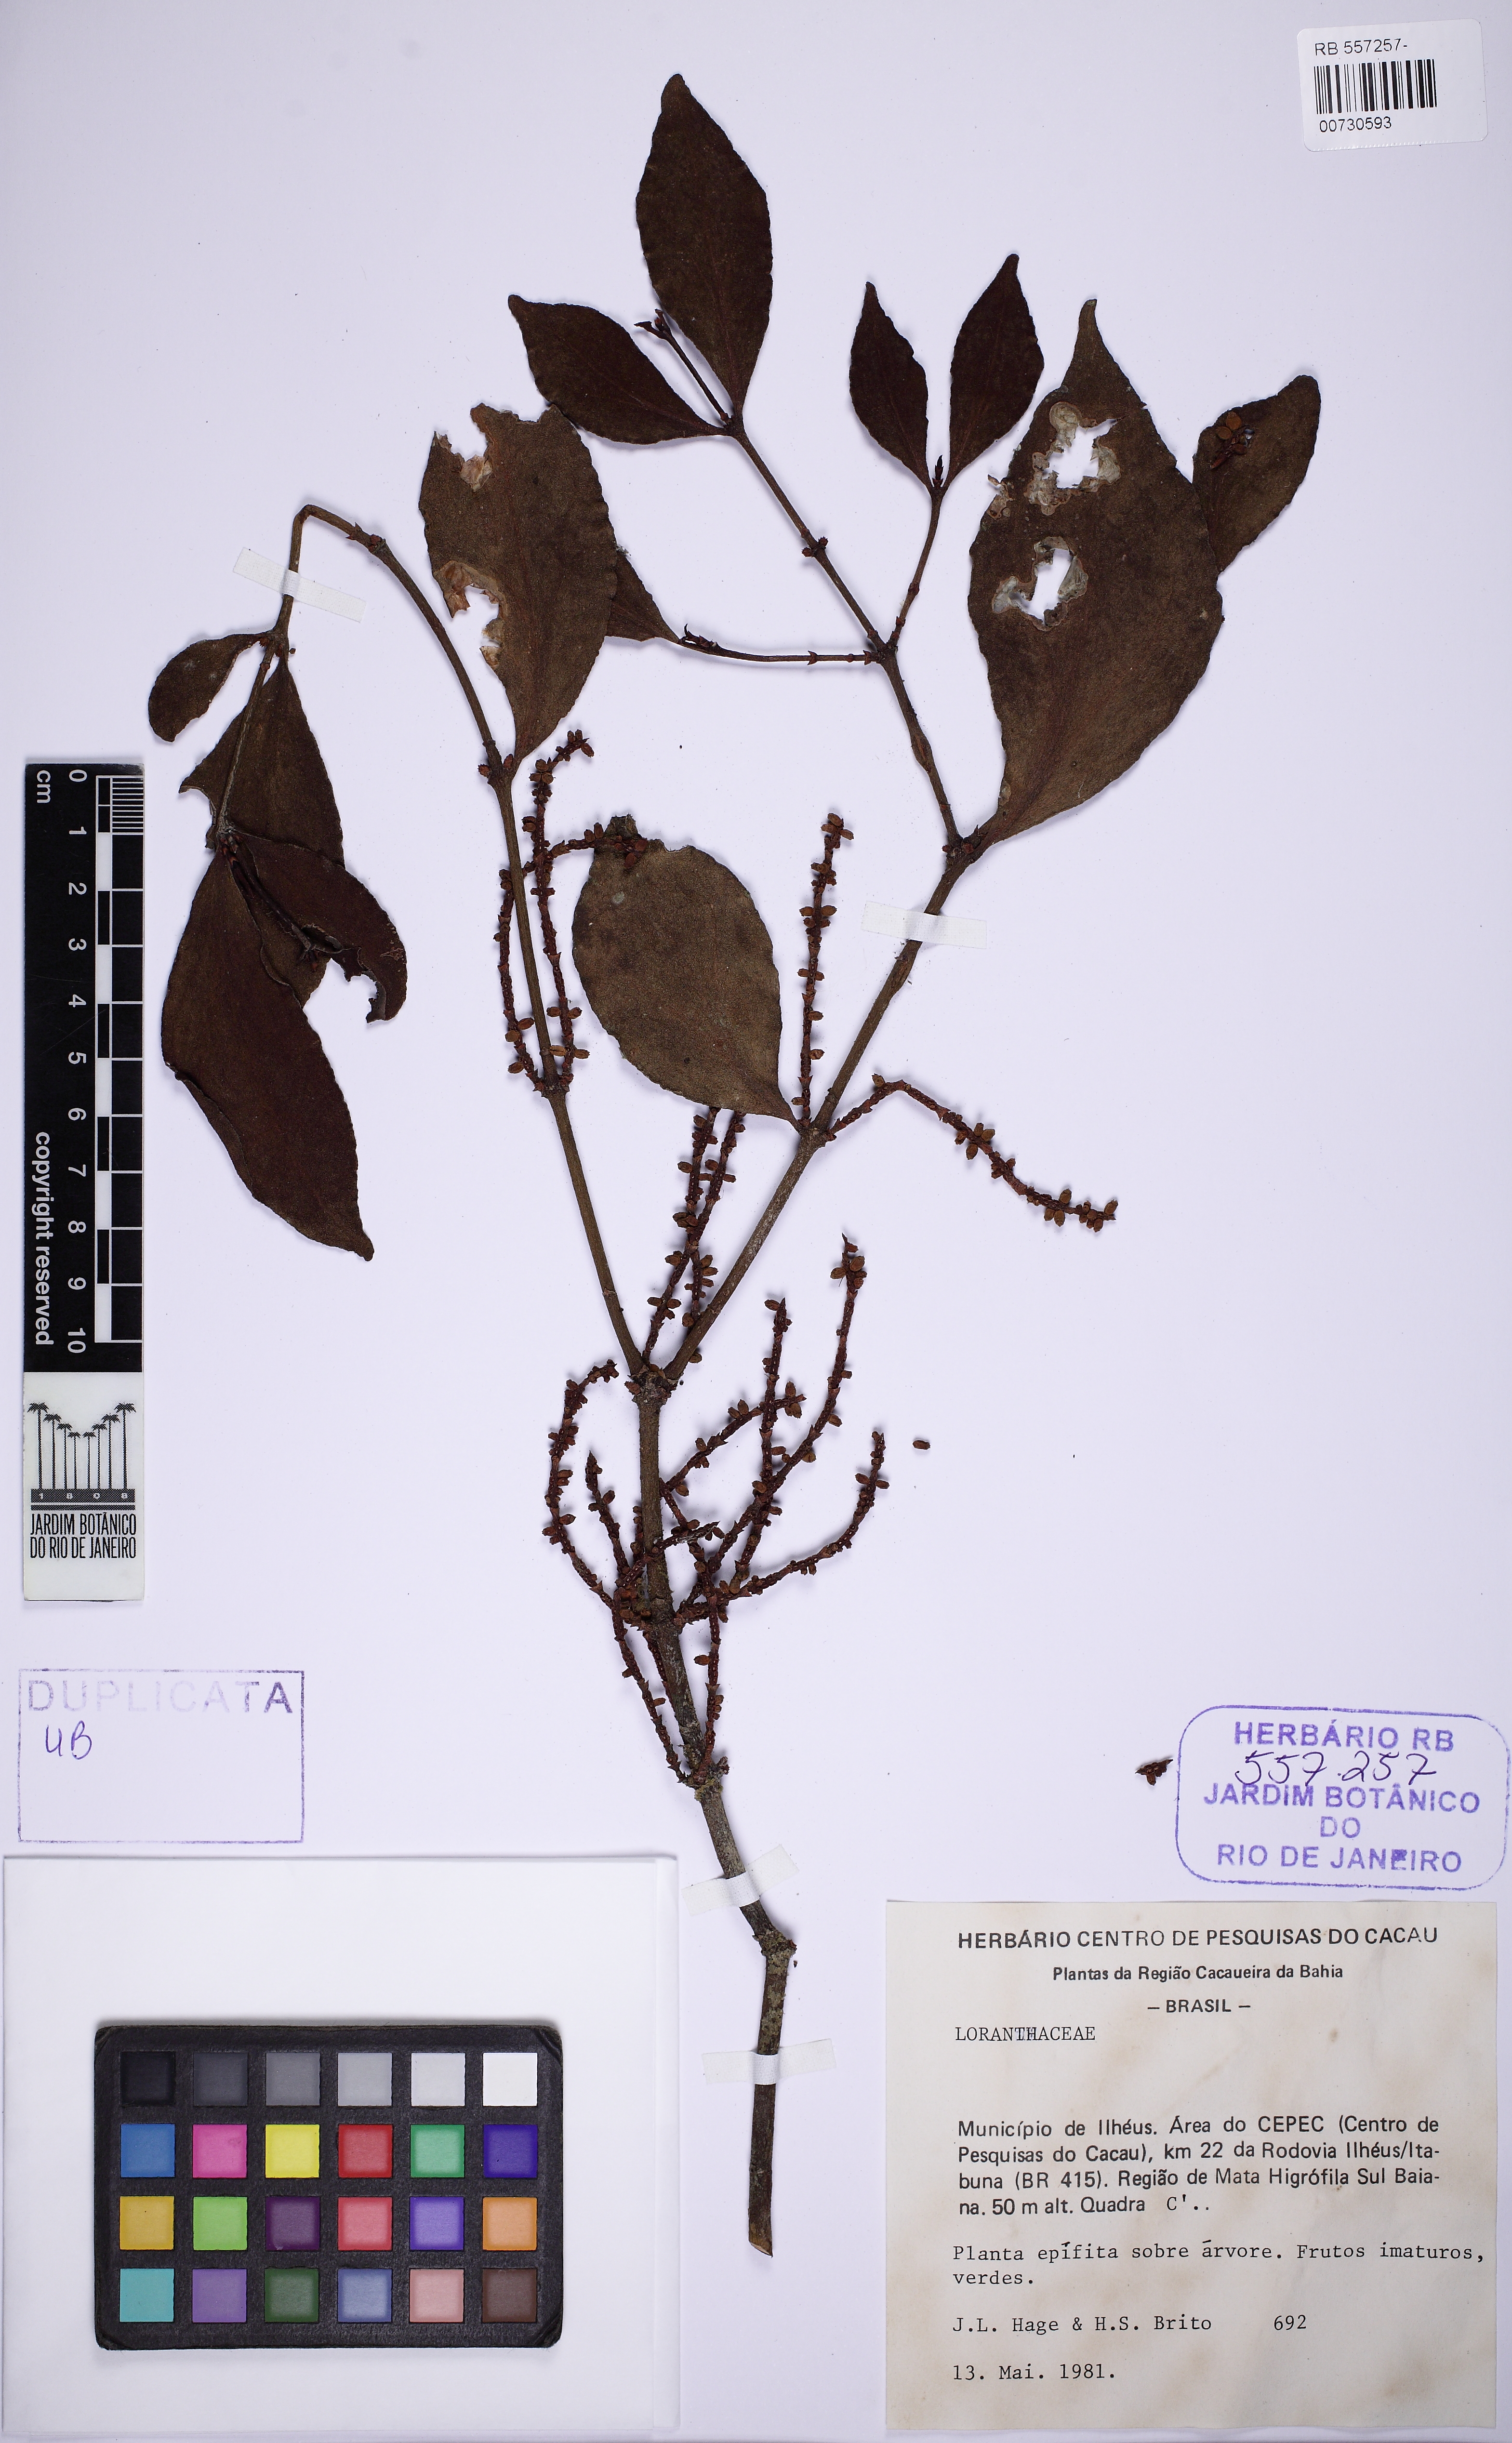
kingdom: Plantae
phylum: Tracheophyta
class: Magnoliopsida
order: Santalales
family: Viscaceae
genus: Phoradendron
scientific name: Phoradendron piperoides
